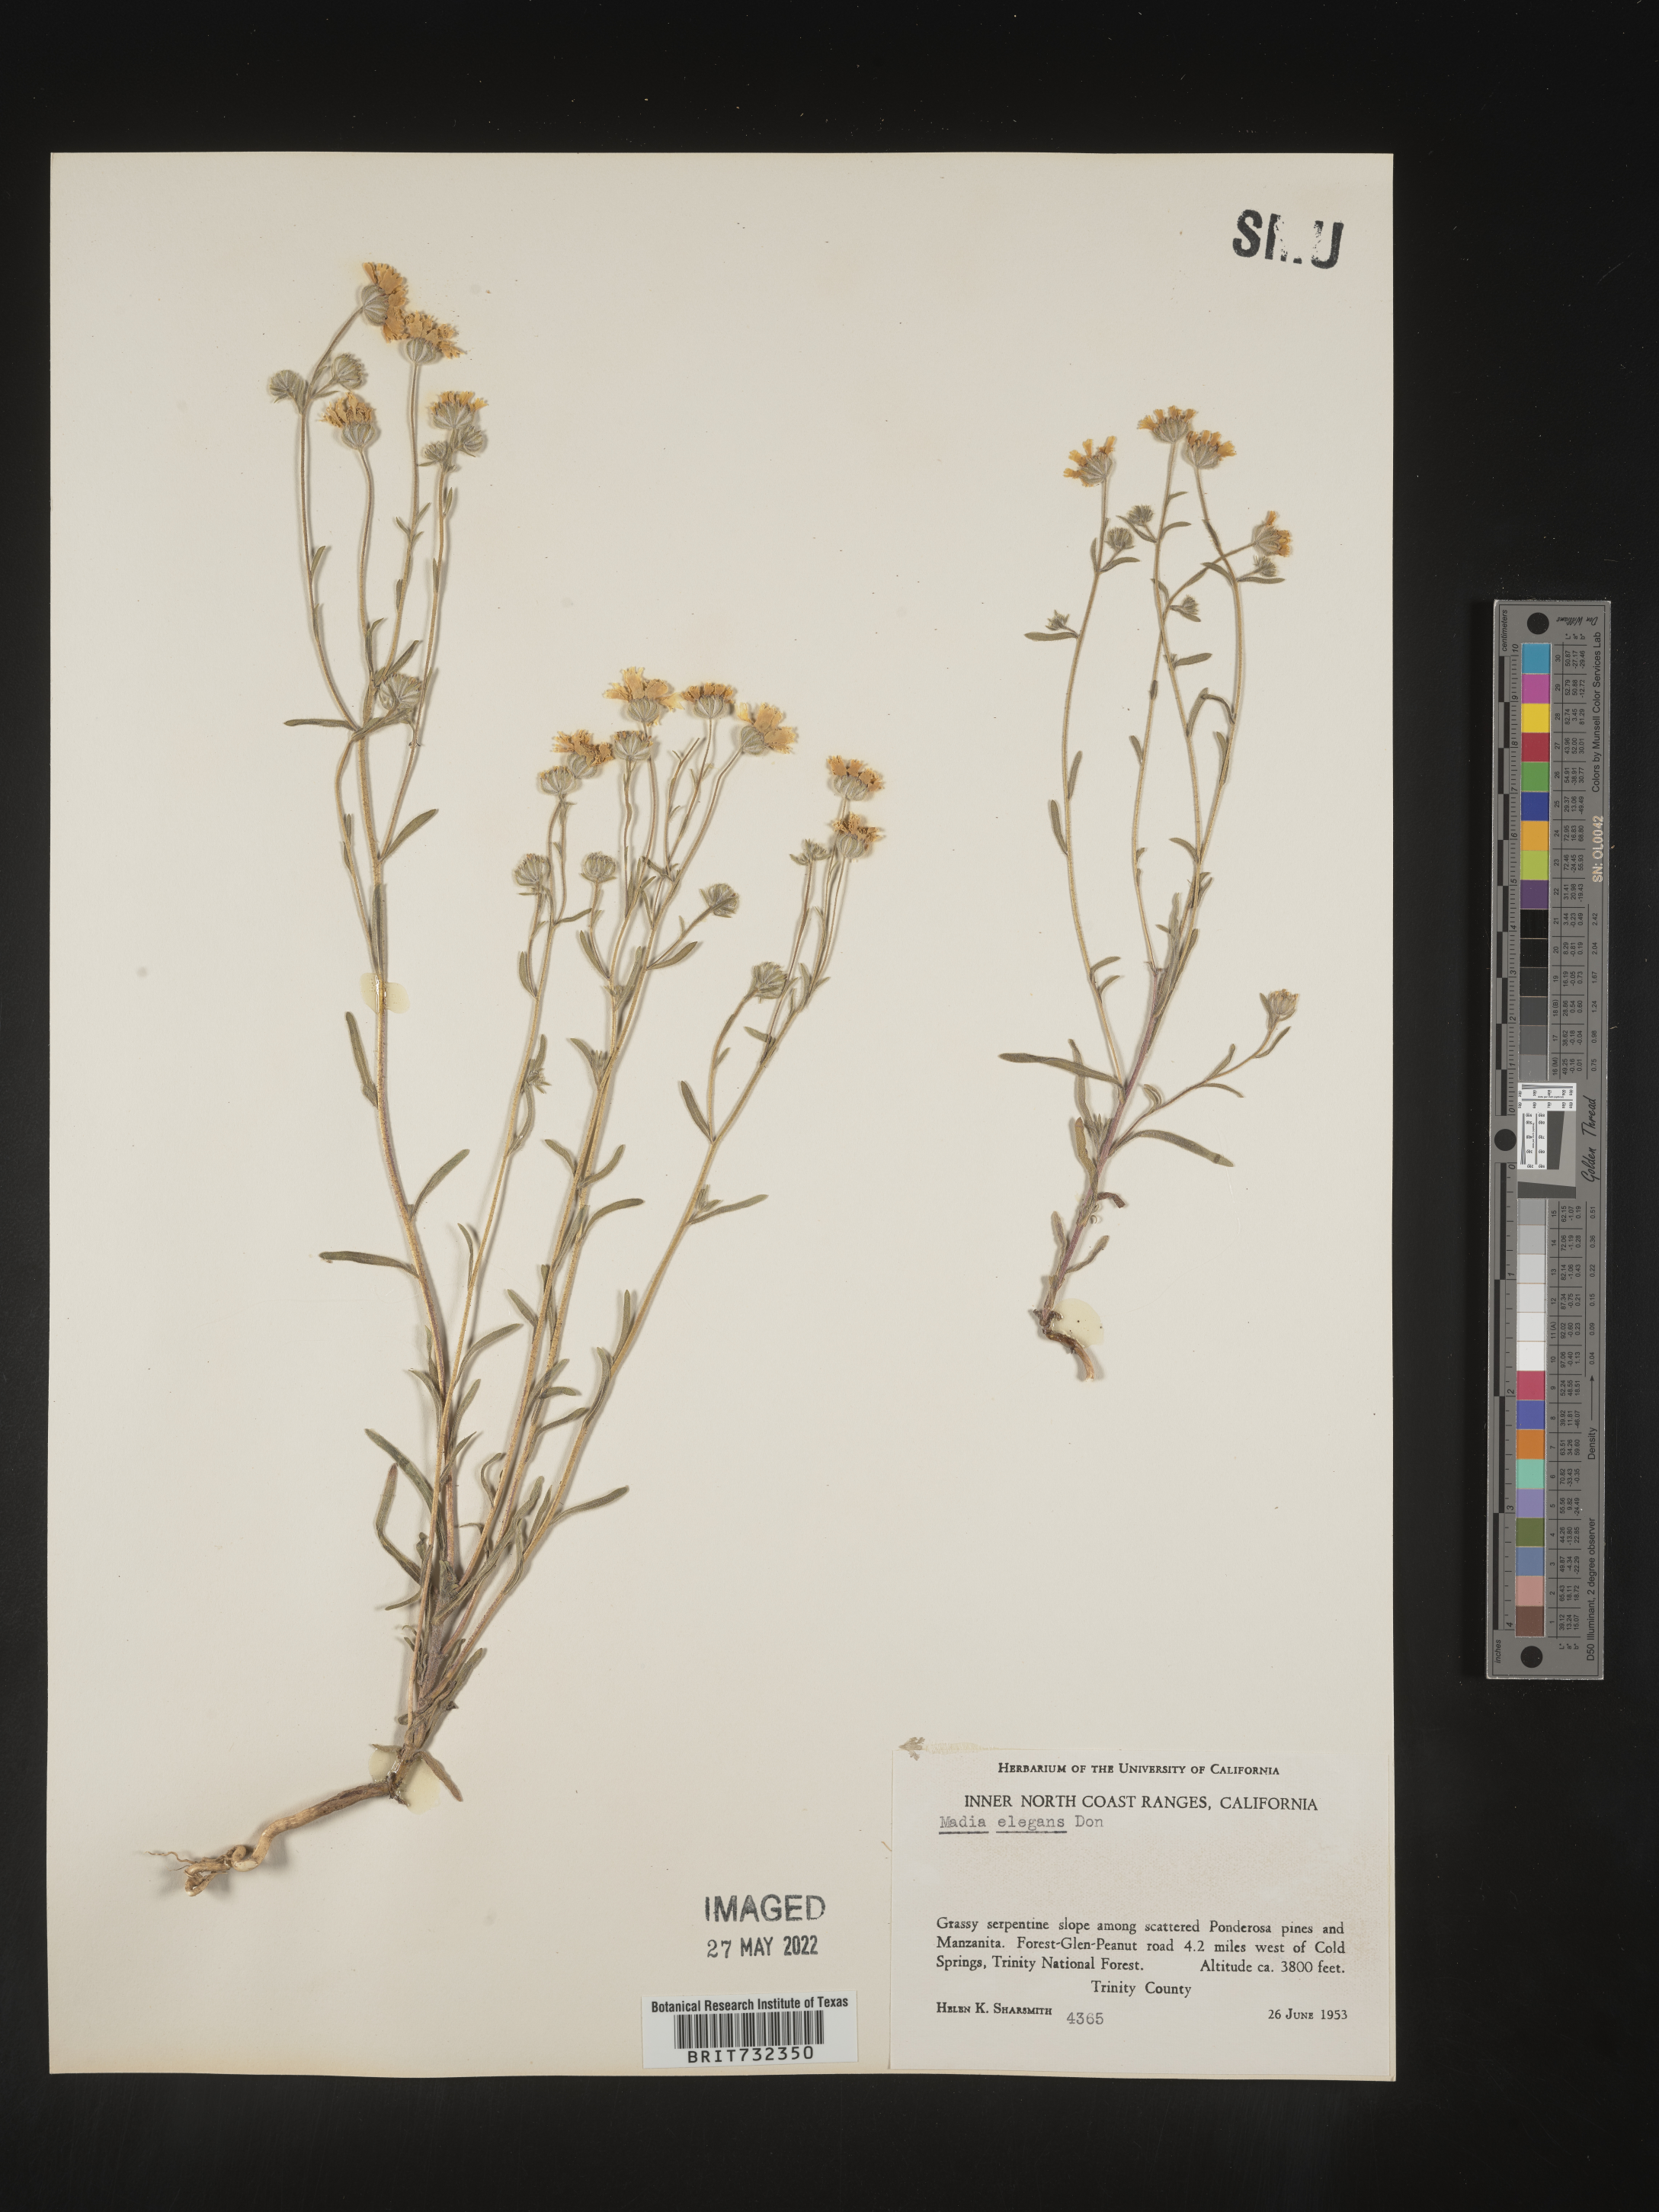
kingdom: Plantae
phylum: Tracheophyta
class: Magnoliopsida
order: Asterales
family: Asteraceae
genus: Madia
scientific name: Madia
